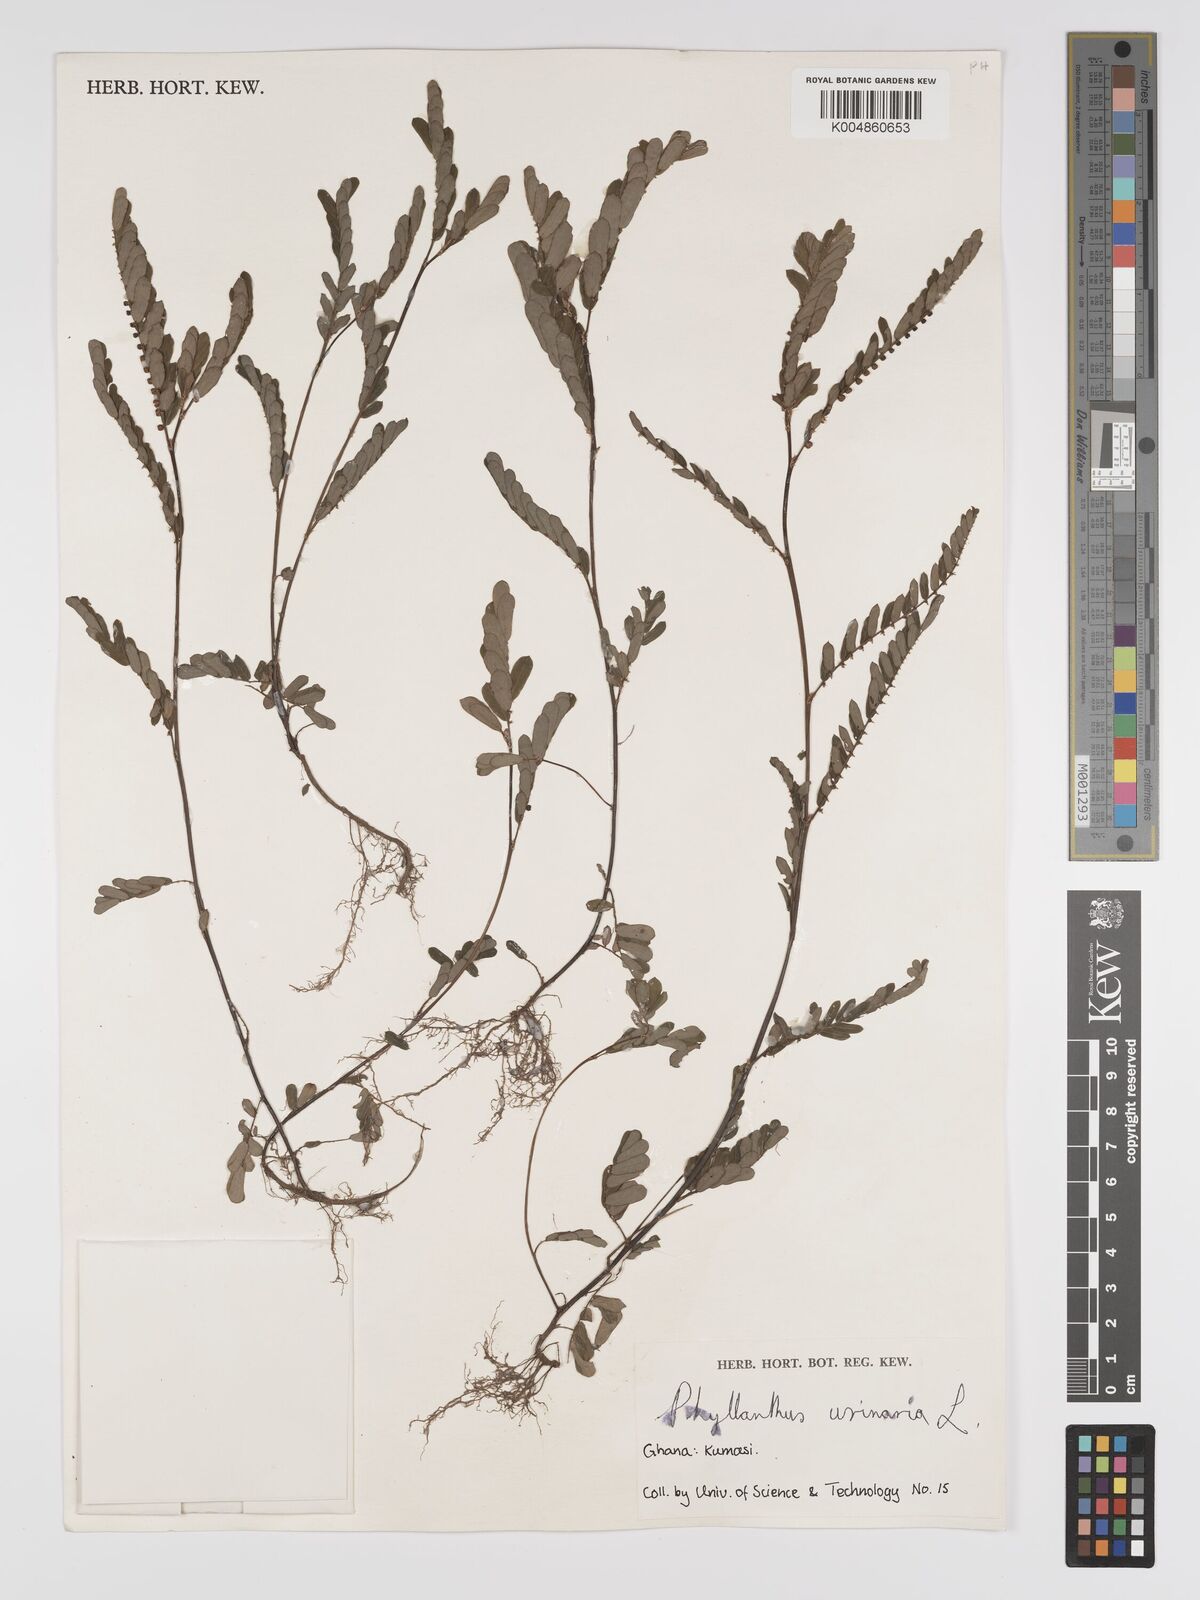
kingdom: Plantae
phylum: Tracheophyta
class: Magnoliopsida
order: Malpighiales
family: Phyllanthaceae
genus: Phyllanthus
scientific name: Phyllanthus urinaria
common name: Chamber bitter
